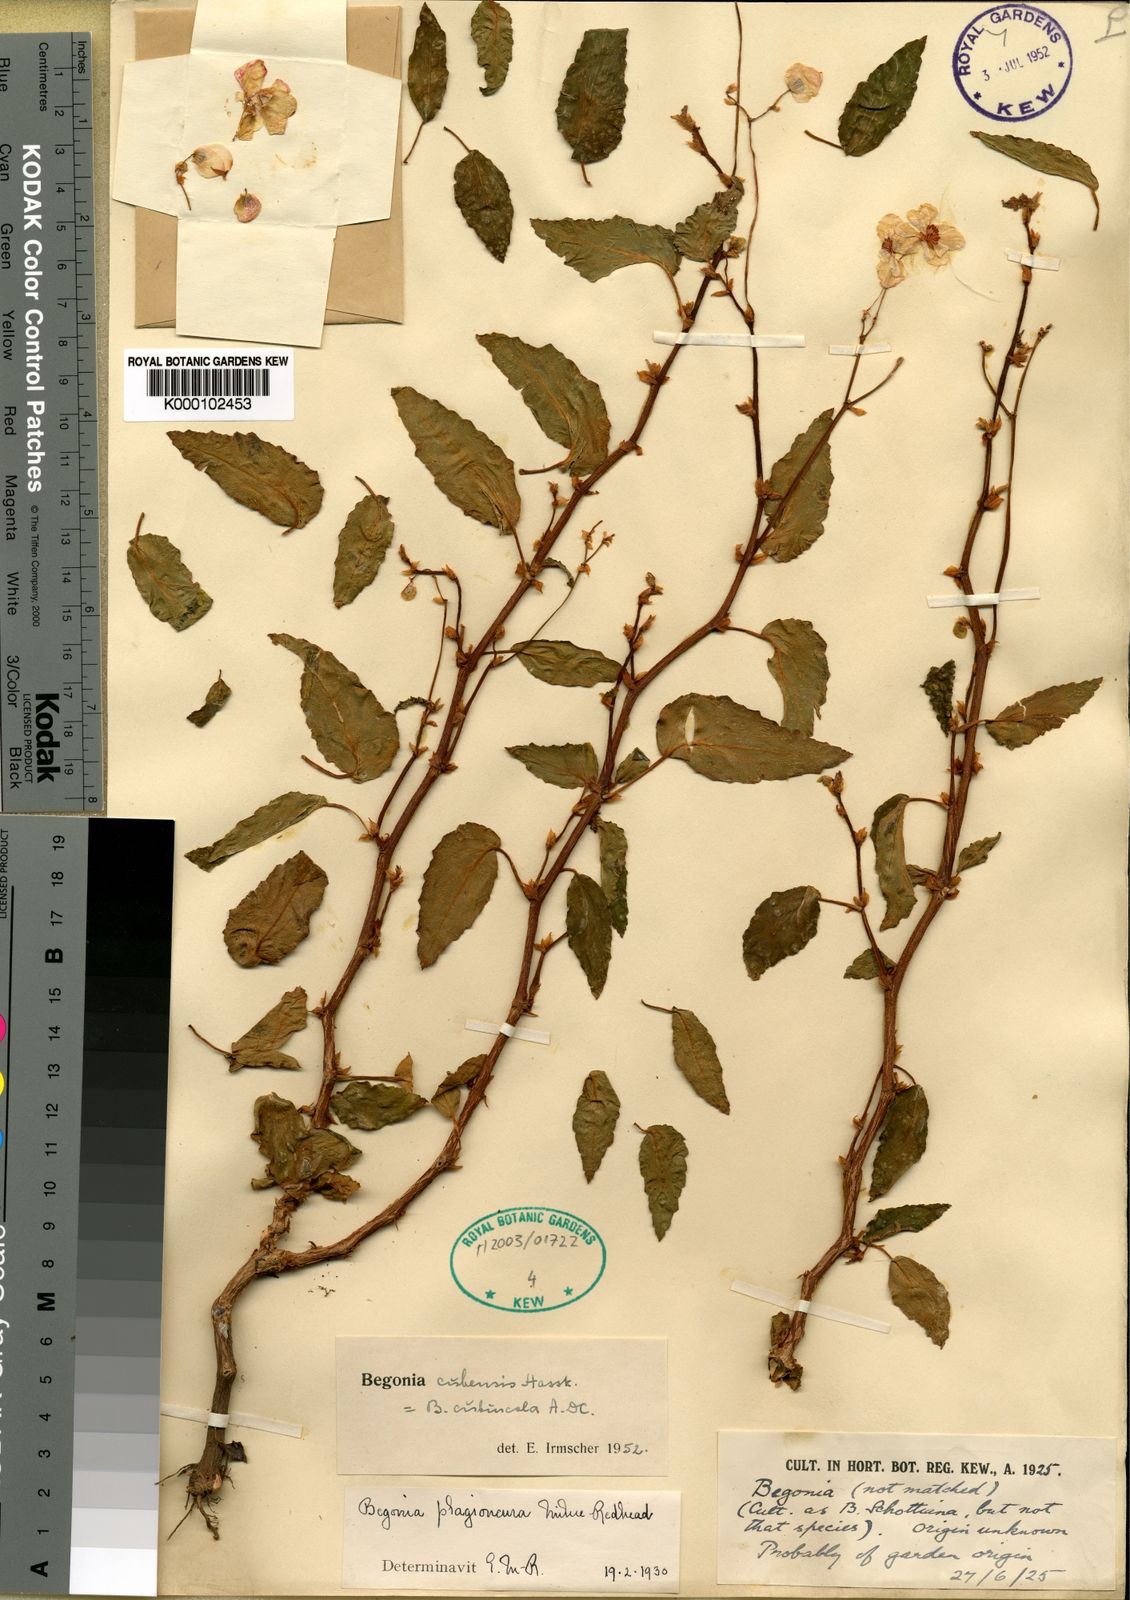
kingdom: Plantae
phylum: Tracheophyta
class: Magnoliopsida
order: Cucurbitales
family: Begoniaceae
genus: Begonia
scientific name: Begonia cubensis
